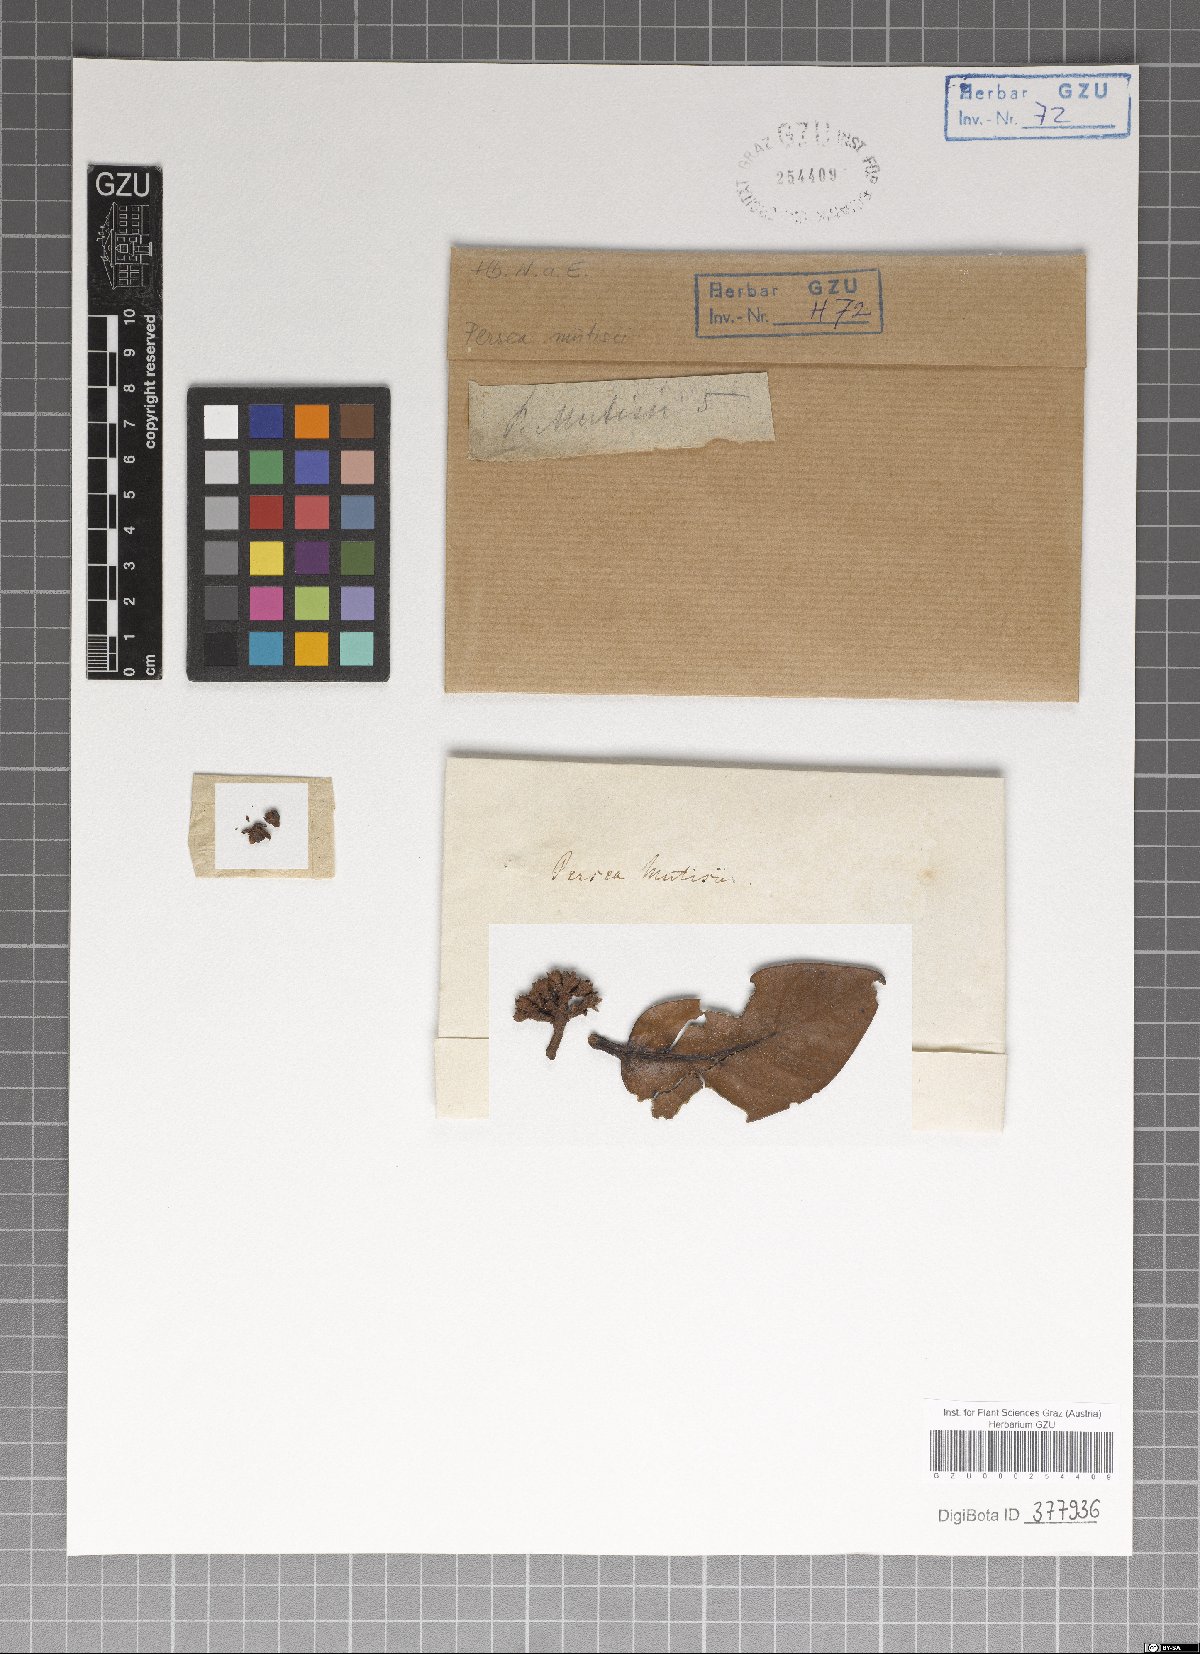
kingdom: Plantae
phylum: Tracheophyta
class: Magnoliopsida
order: Laurales
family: Lauraceae
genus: Persea
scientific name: Persea mutisii
